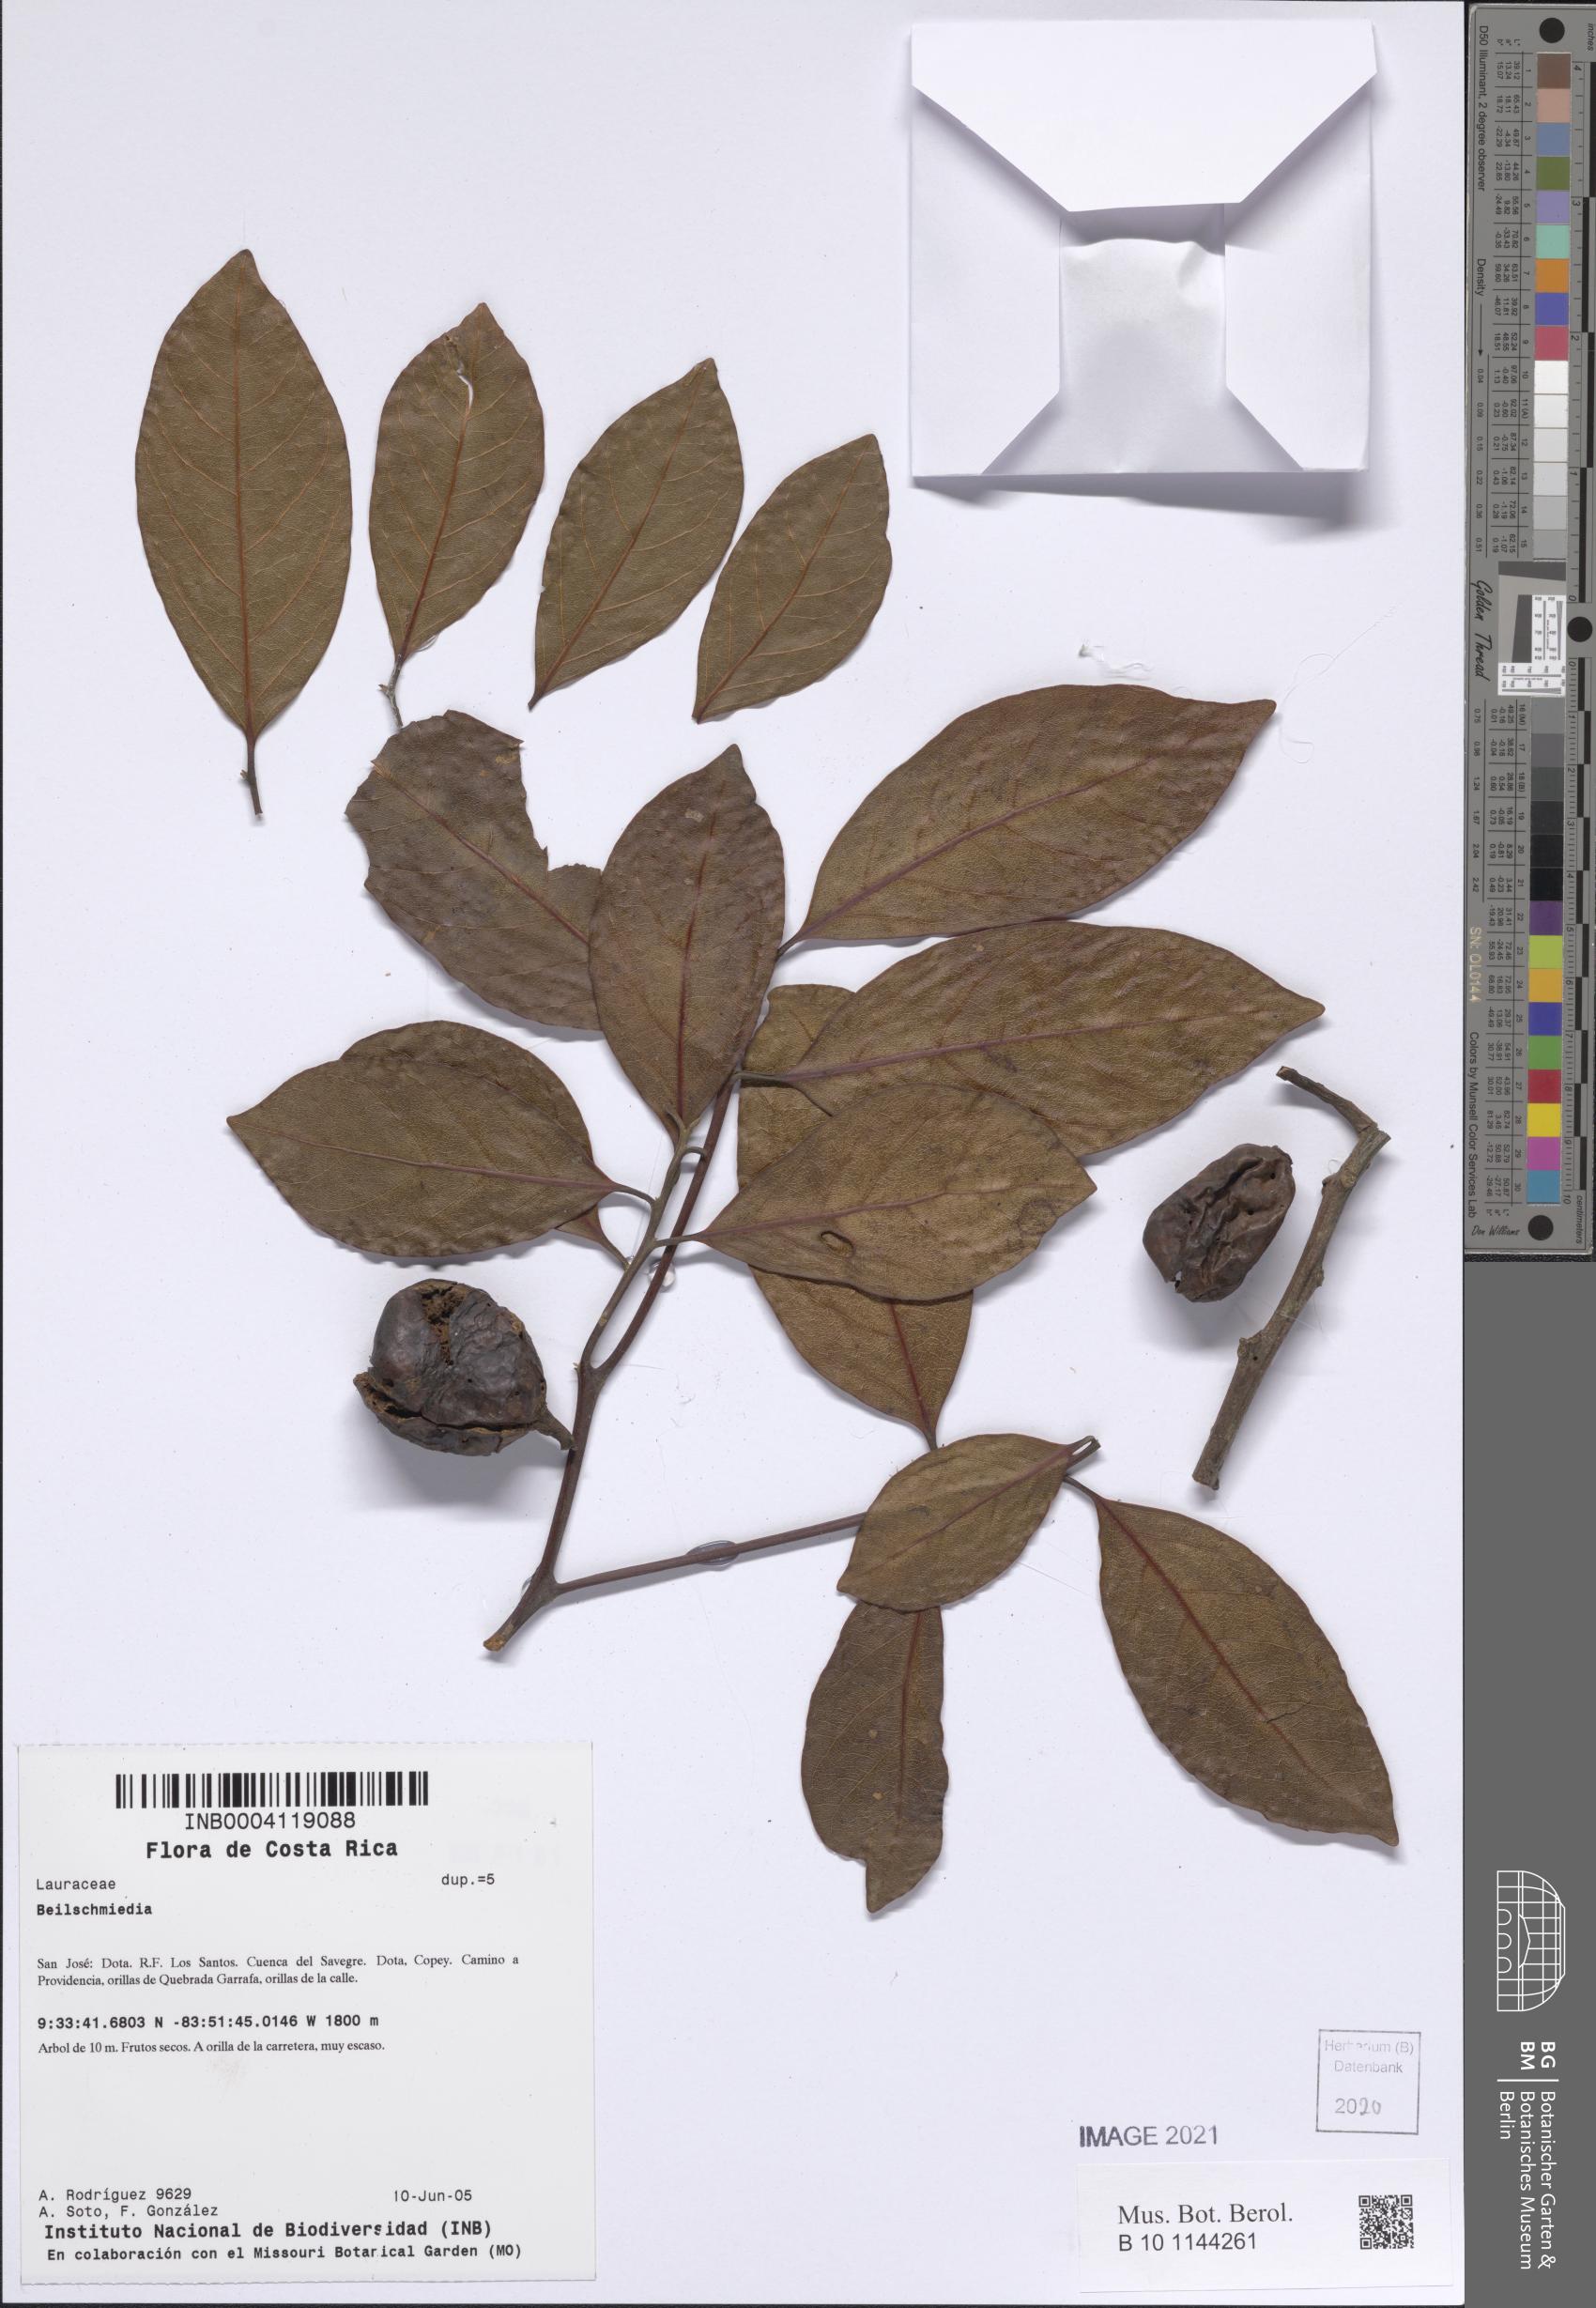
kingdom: Plantae
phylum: Tracheophyta
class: Magnoliopsida
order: Laurales
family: Lauraceae
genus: Beilschmiedia
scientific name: Beilschmiedia
